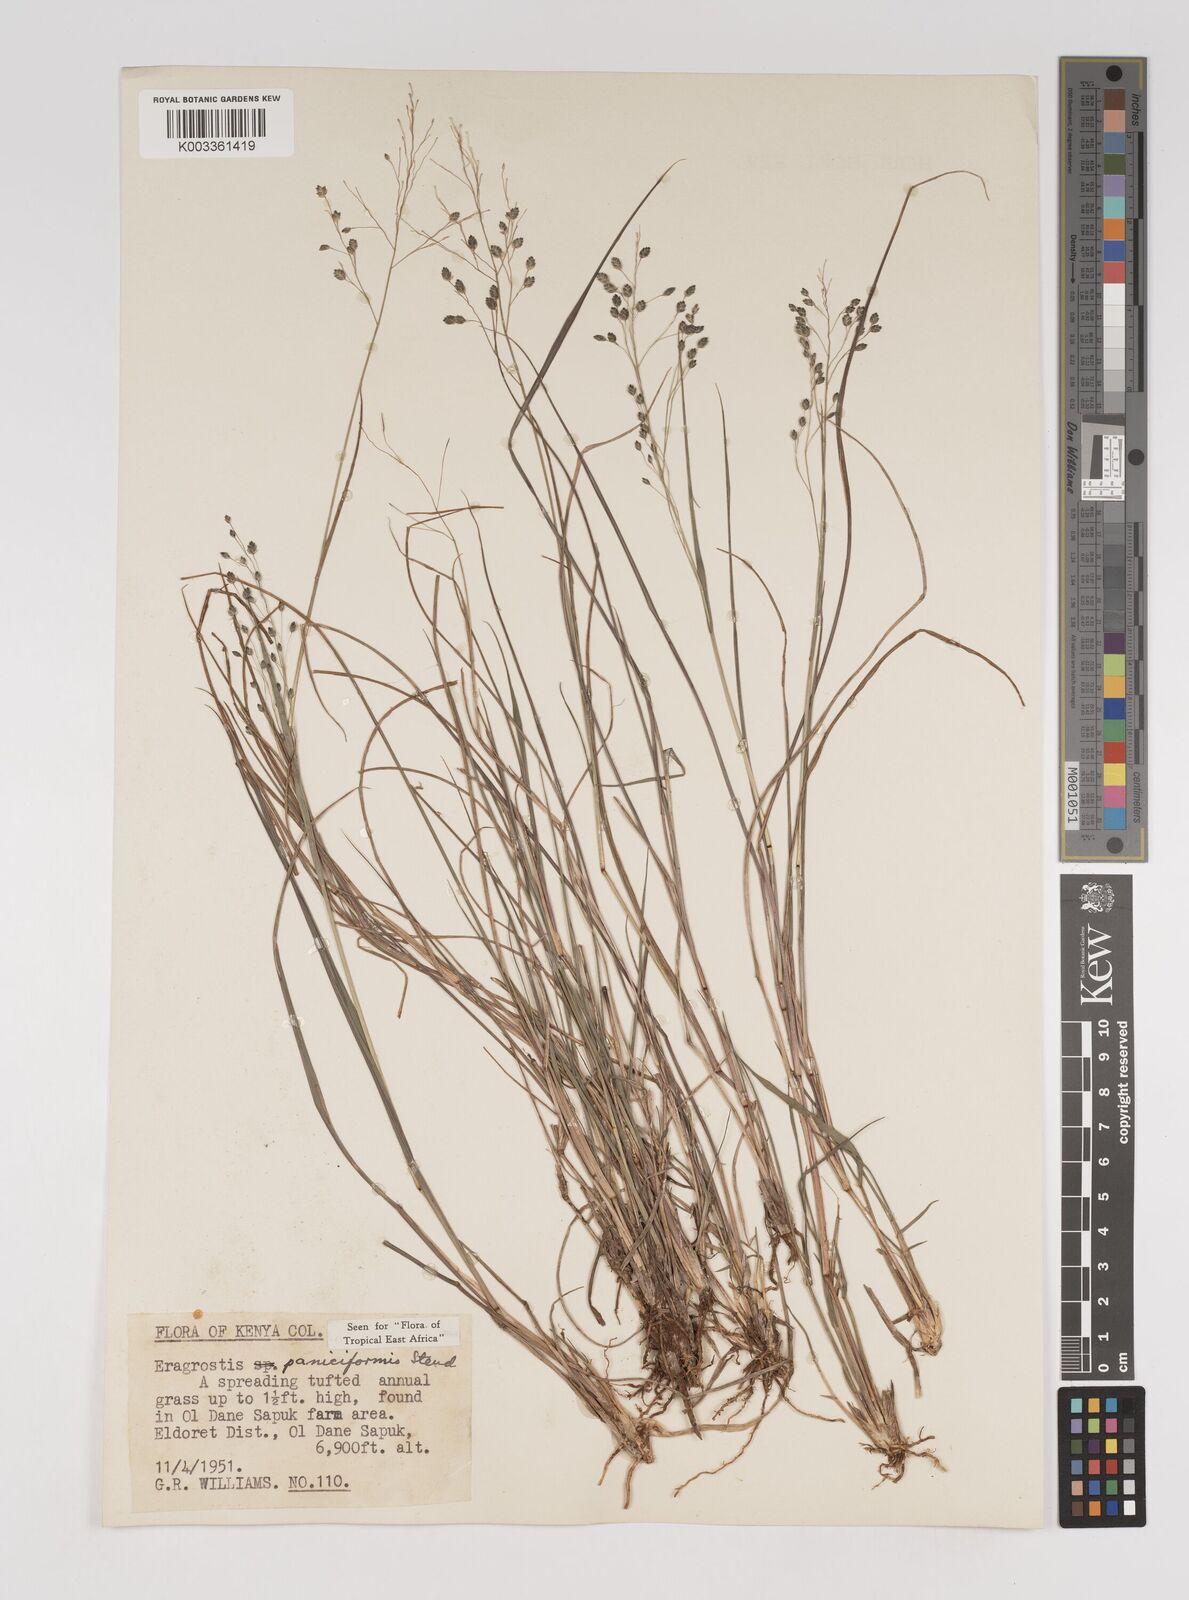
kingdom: Plantae
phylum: Tracheophyta
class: Liliopsida
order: Poales
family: Poaceae
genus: Eragrostis
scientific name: Eragrostis paniciformis
